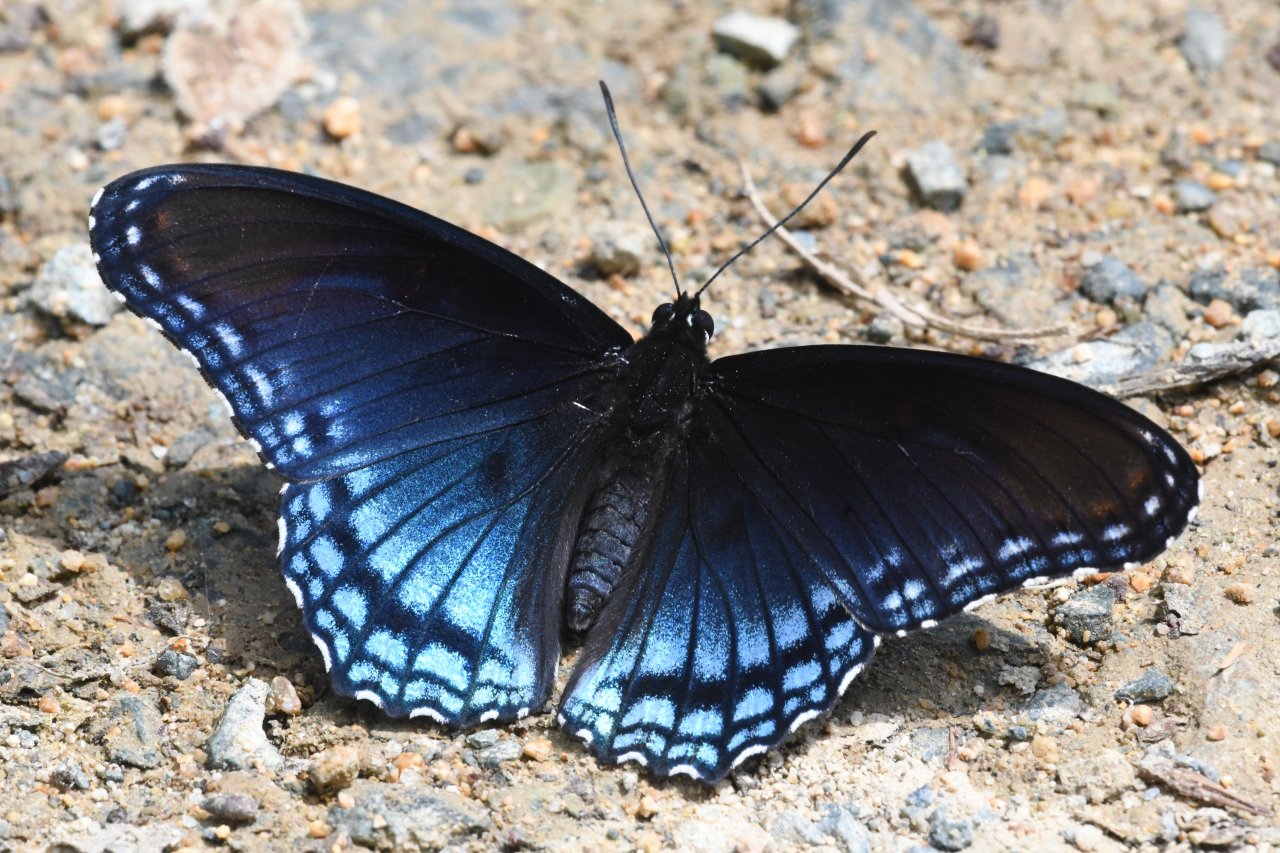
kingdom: Animalia
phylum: Arthropoda
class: Insecta
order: Lepidoptera
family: Nymphalidae
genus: Limenitis
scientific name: Limenitis astyanax
